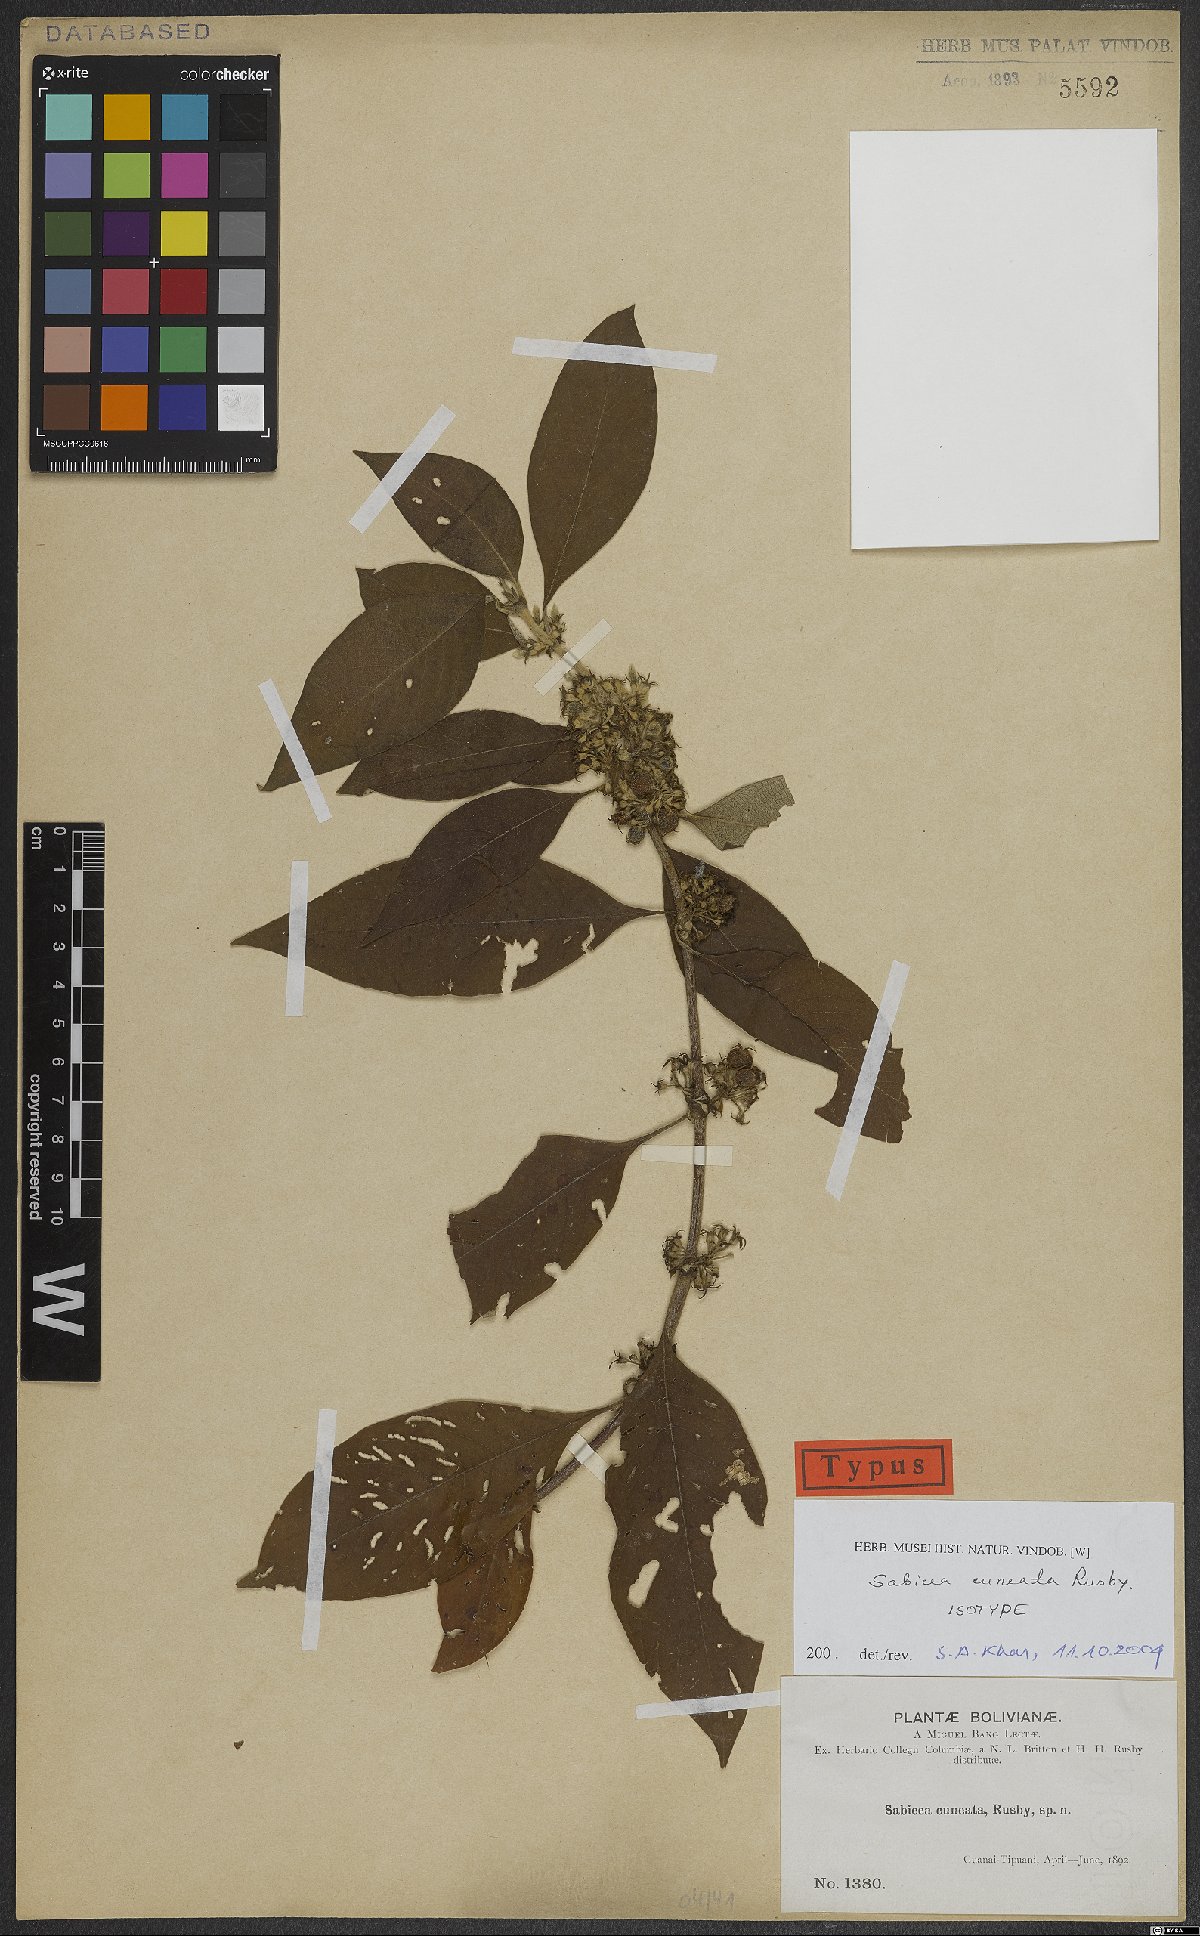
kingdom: Plantae
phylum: Tracheophyta
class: Magnoliopsida
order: Gentianales
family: Rubiaceae
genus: Sabicea
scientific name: Sabicea cuneata
